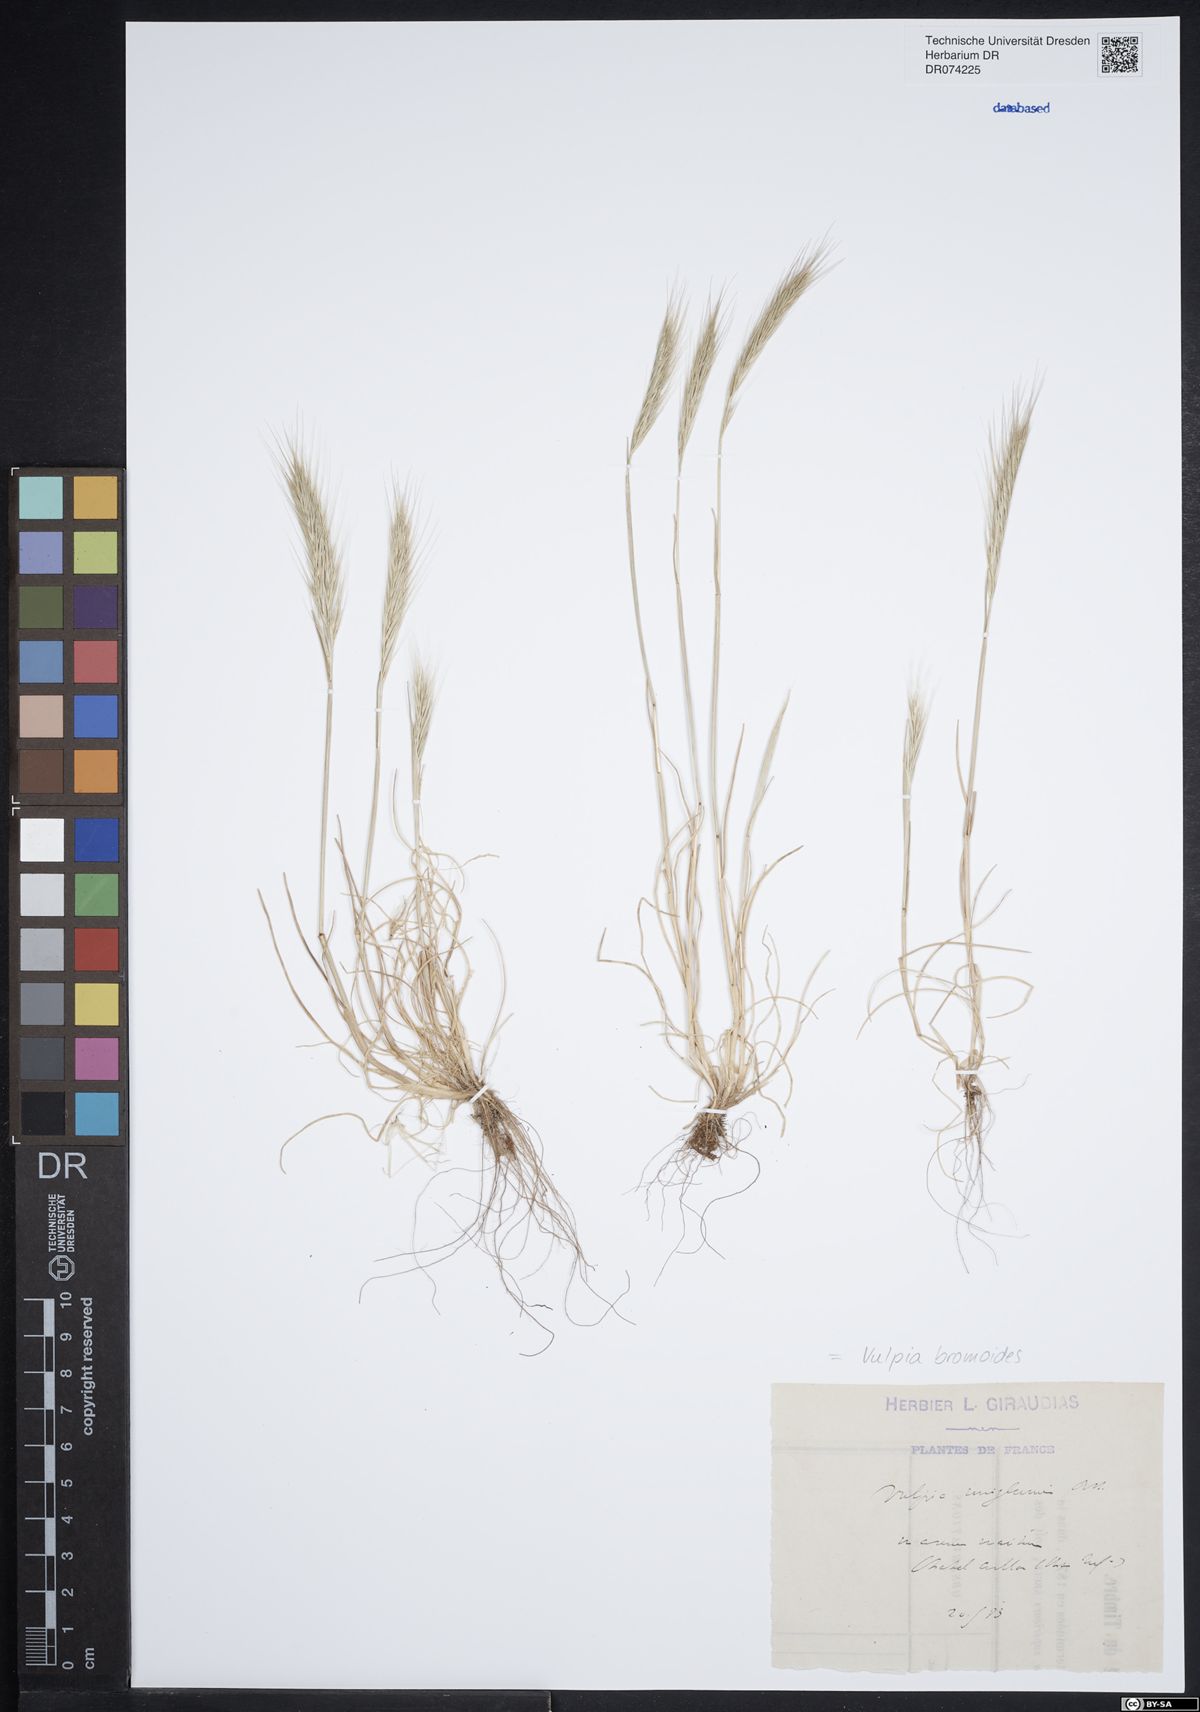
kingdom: Plantae
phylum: Tracheophyta
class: Liliopsida
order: Poales
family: Poaceae
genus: Festuca
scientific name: Festuca bromoides
